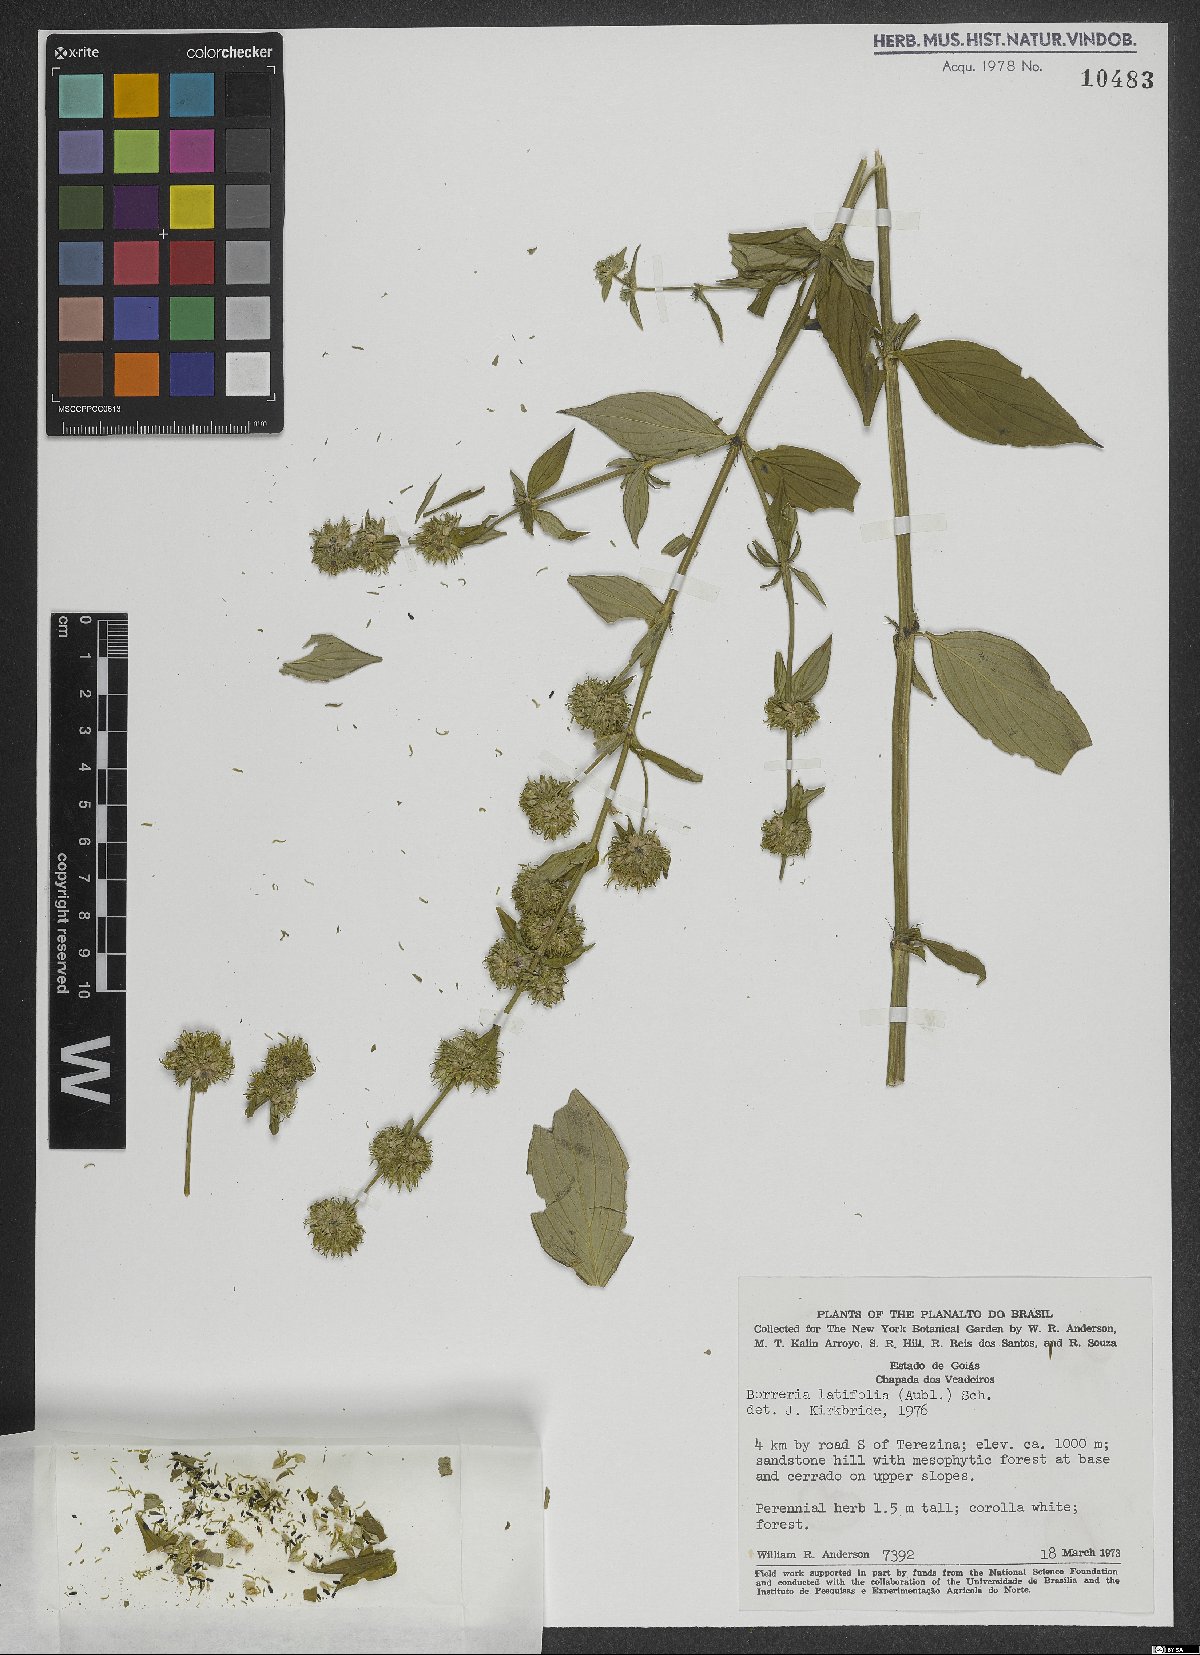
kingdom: Plantae
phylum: Tracheophyta
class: Magnoliopsida
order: Gentianales
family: Rubiaceae
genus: Spermacoce
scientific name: Spermacoce latifolia
